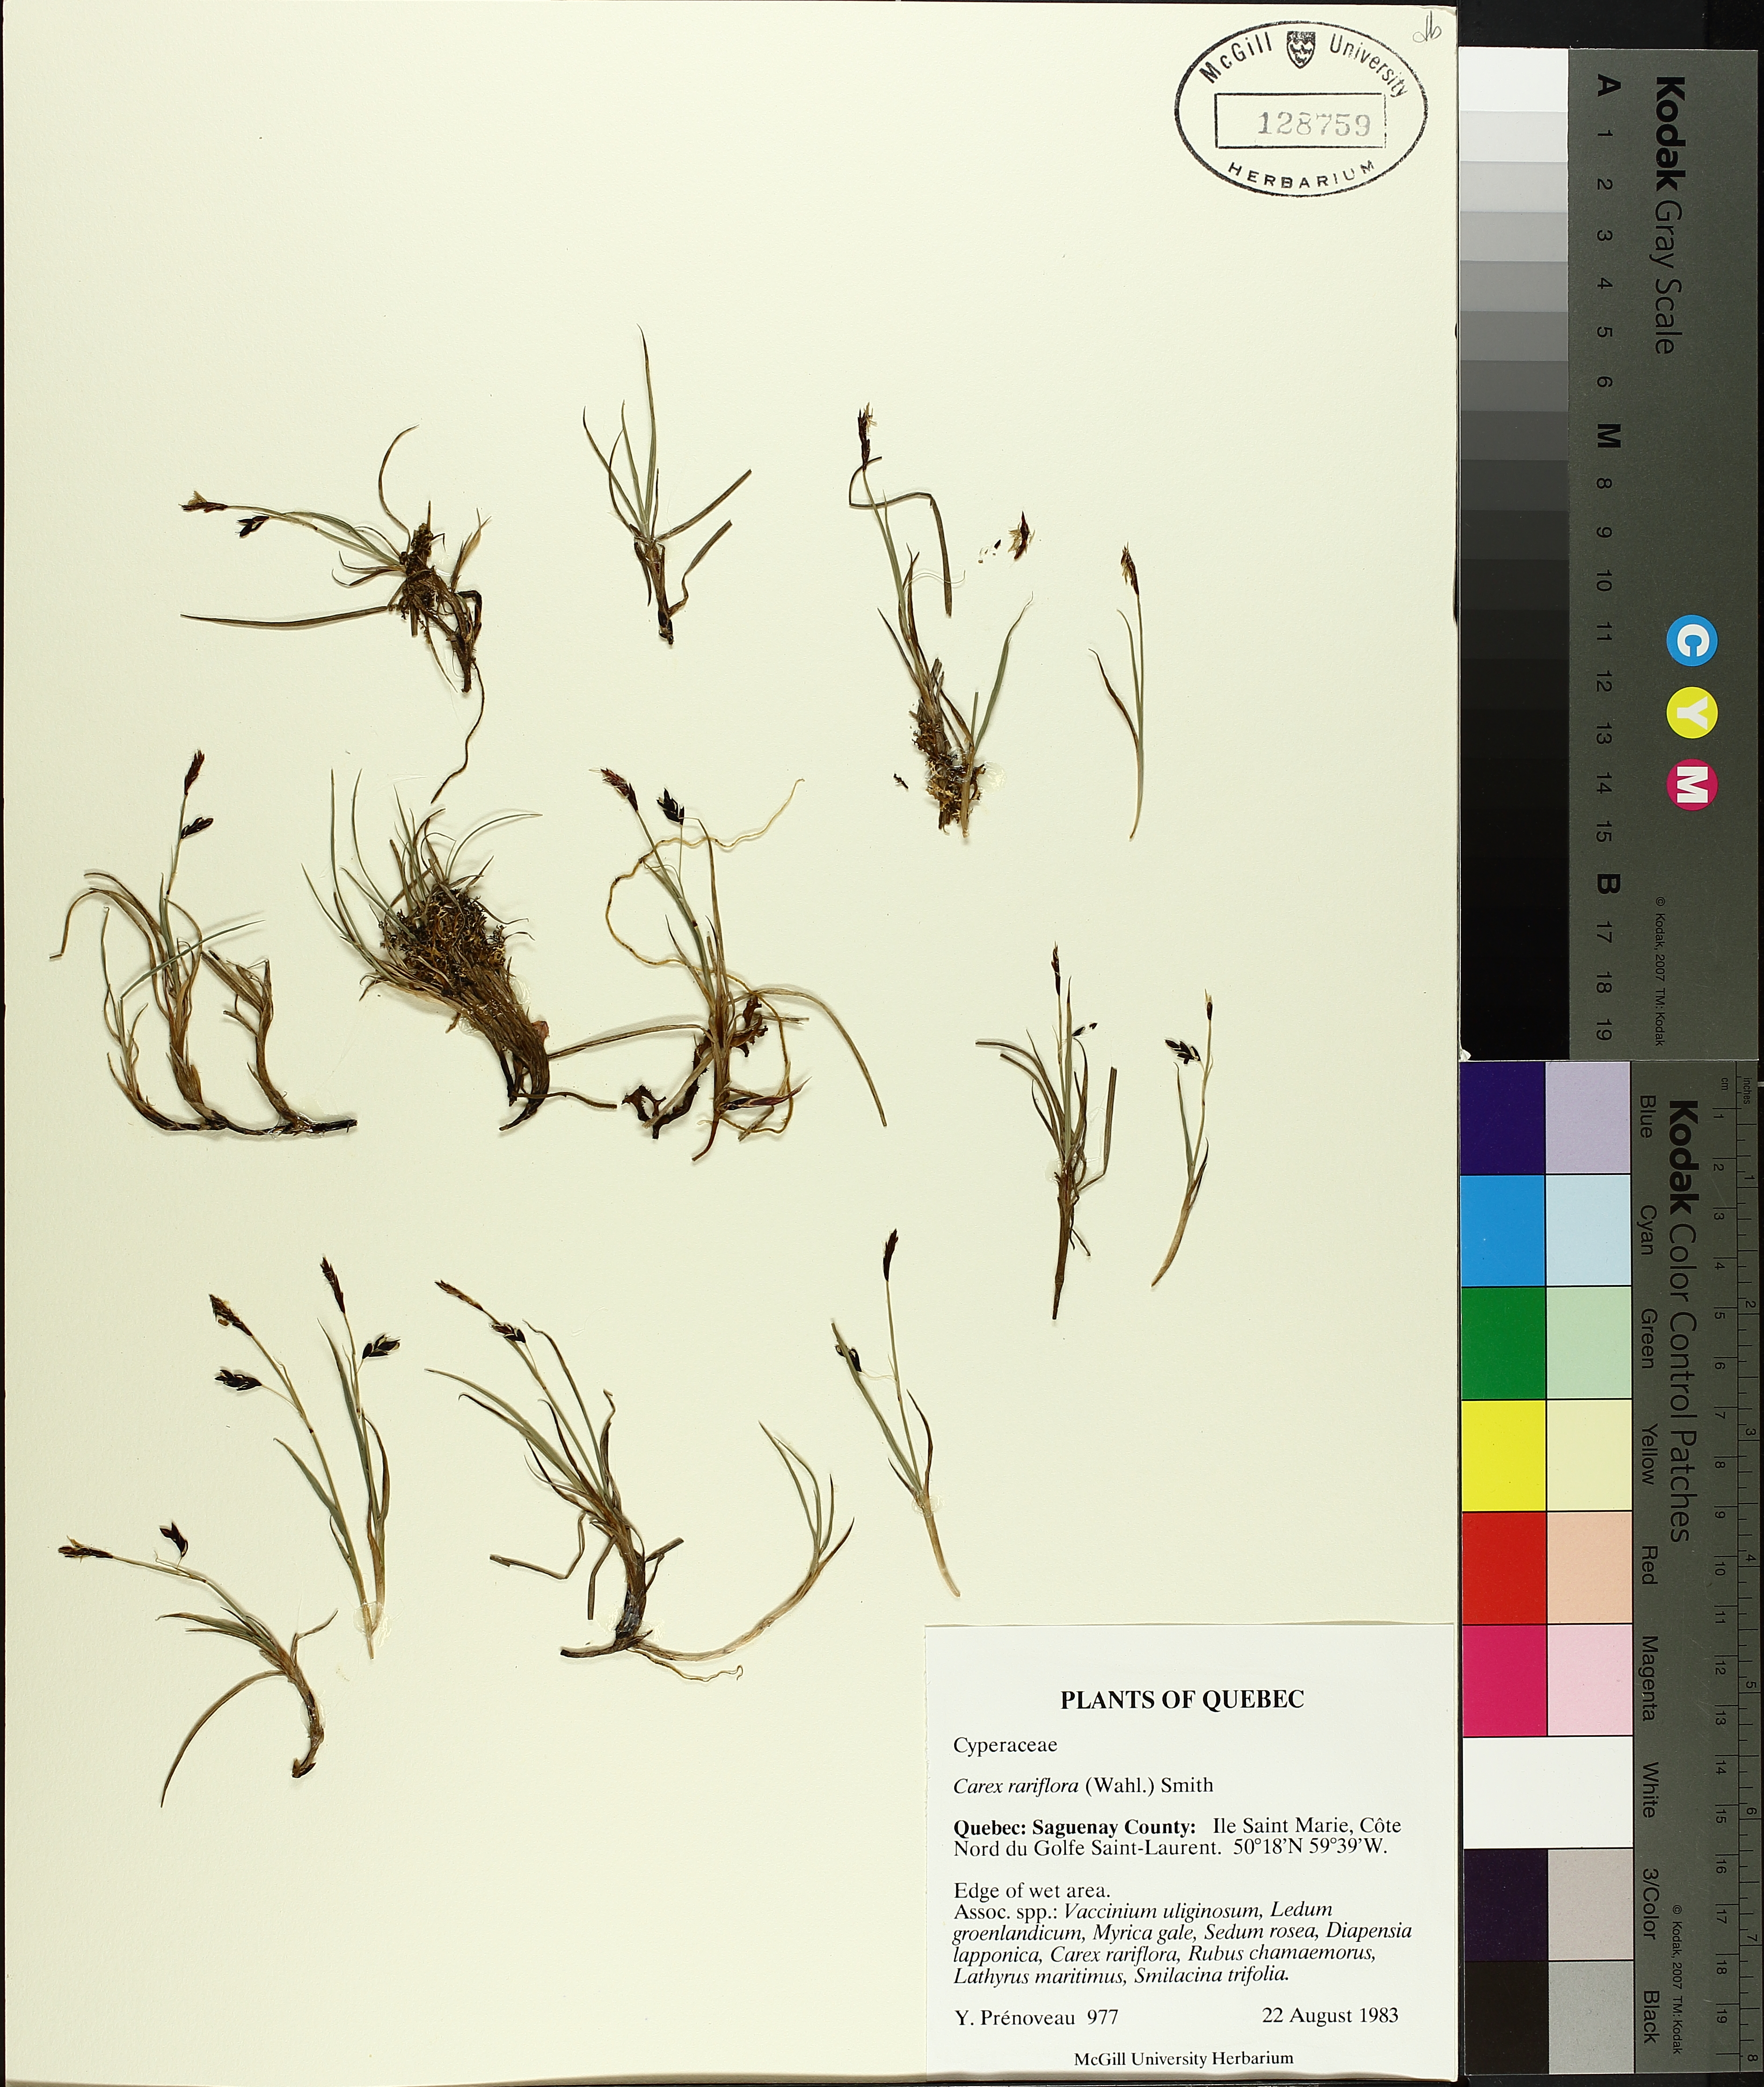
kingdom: Plantae
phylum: Tracheophyta
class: Liliopsida
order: Poales
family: Cyperaceae
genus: Carex
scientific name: Carex rariflora
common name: Loose-flowered alpine sedge
